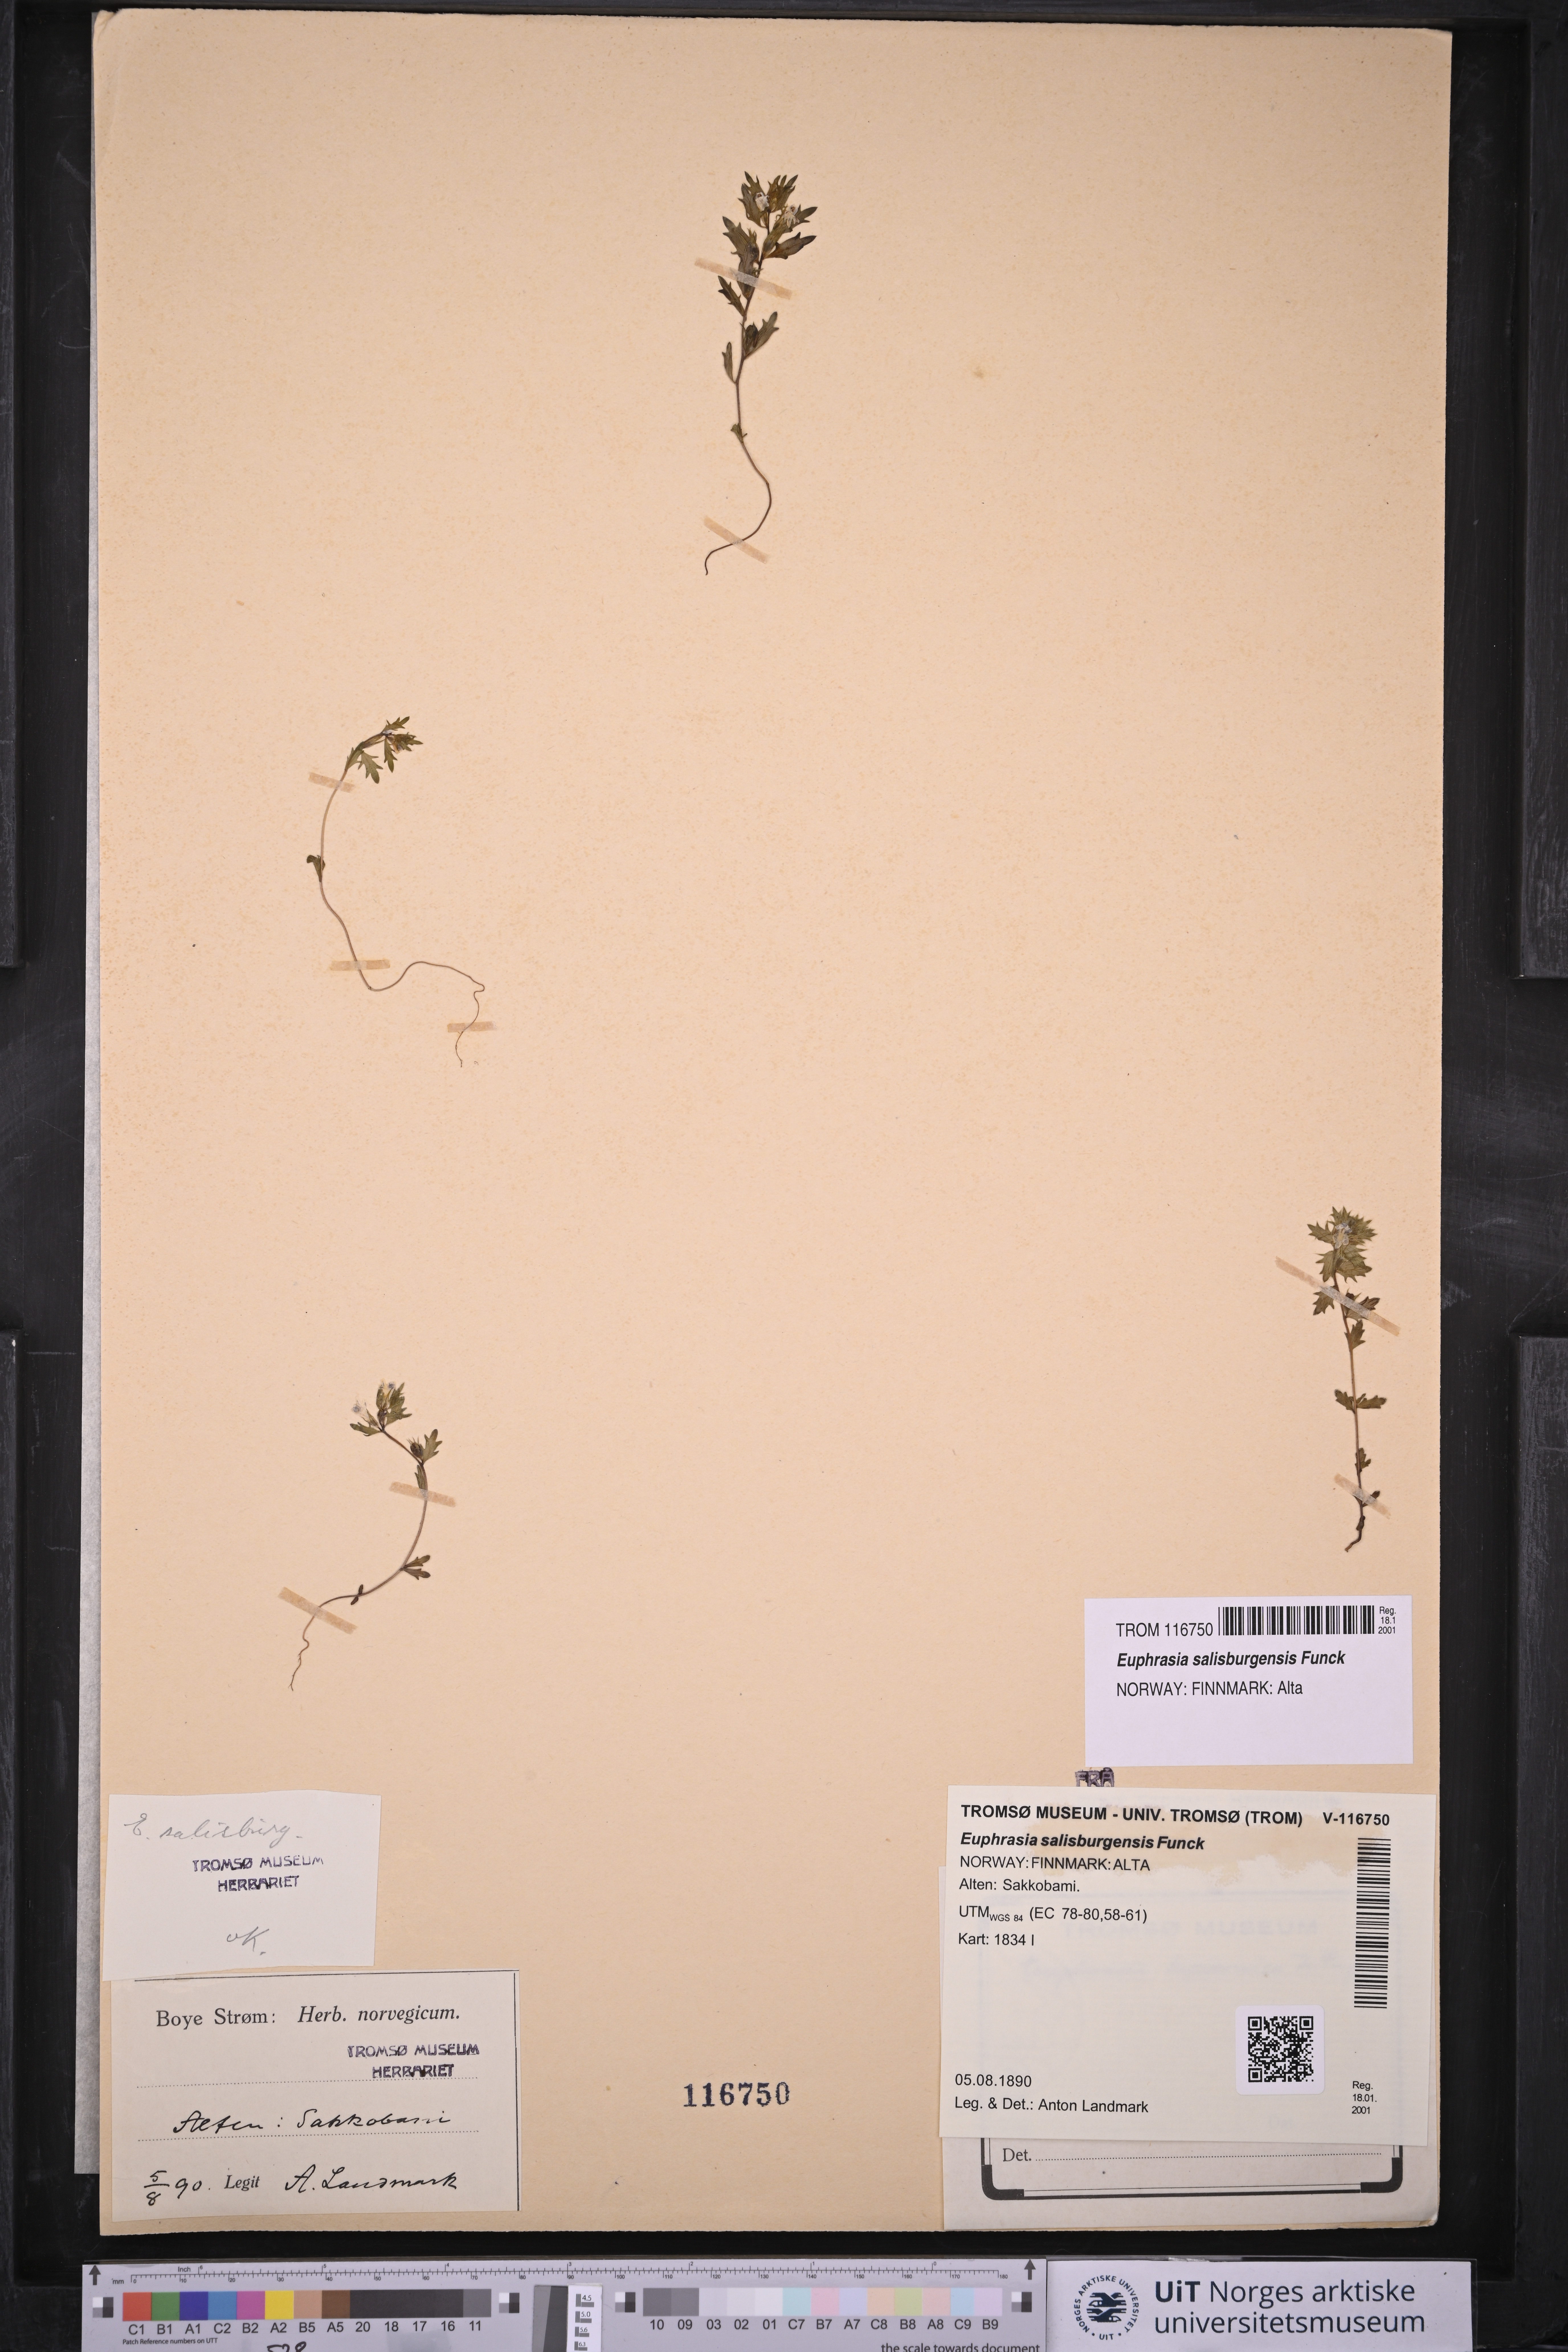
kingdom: Plantae
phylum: Tracheophyta
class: Magnoliopsida
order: Lamiales
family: Orobanchaceae
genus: Euphrasia
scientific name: Euphrasia salisburgensis
